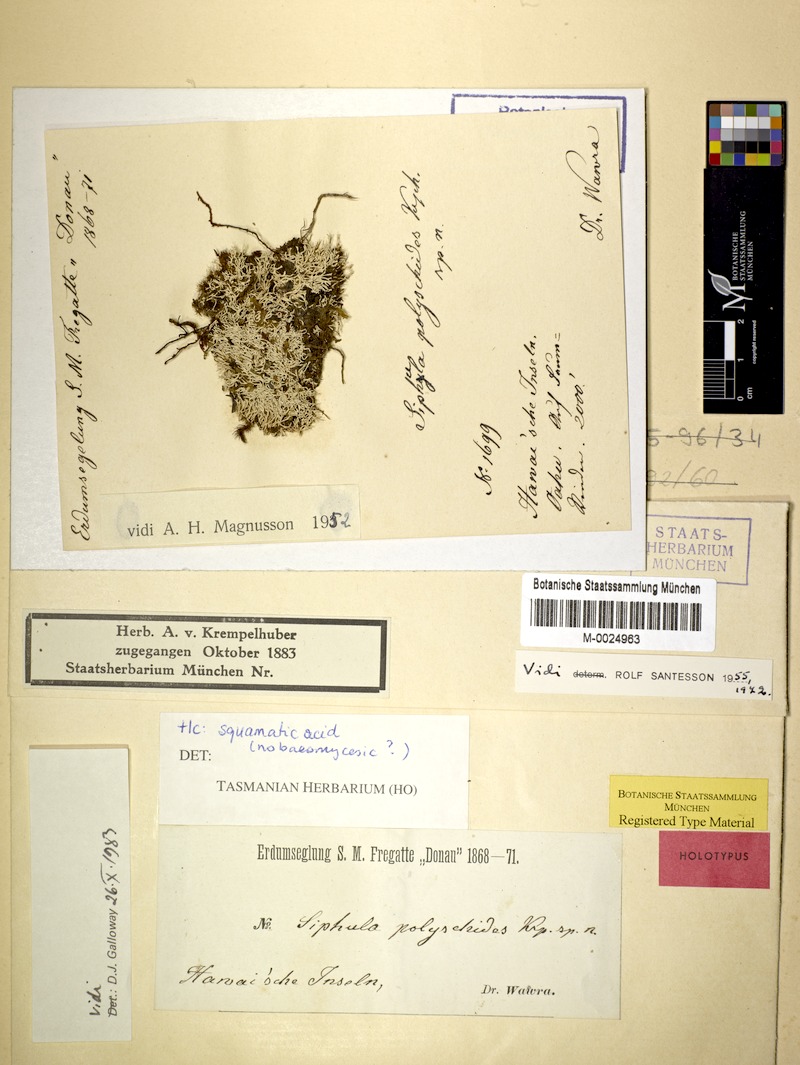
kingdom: Fungi
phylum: Ascomycota
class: Lecanoromycetes
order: Pertusariales
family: Icmadophilaceae
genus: Siphula
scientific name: Siphula pickeringii
